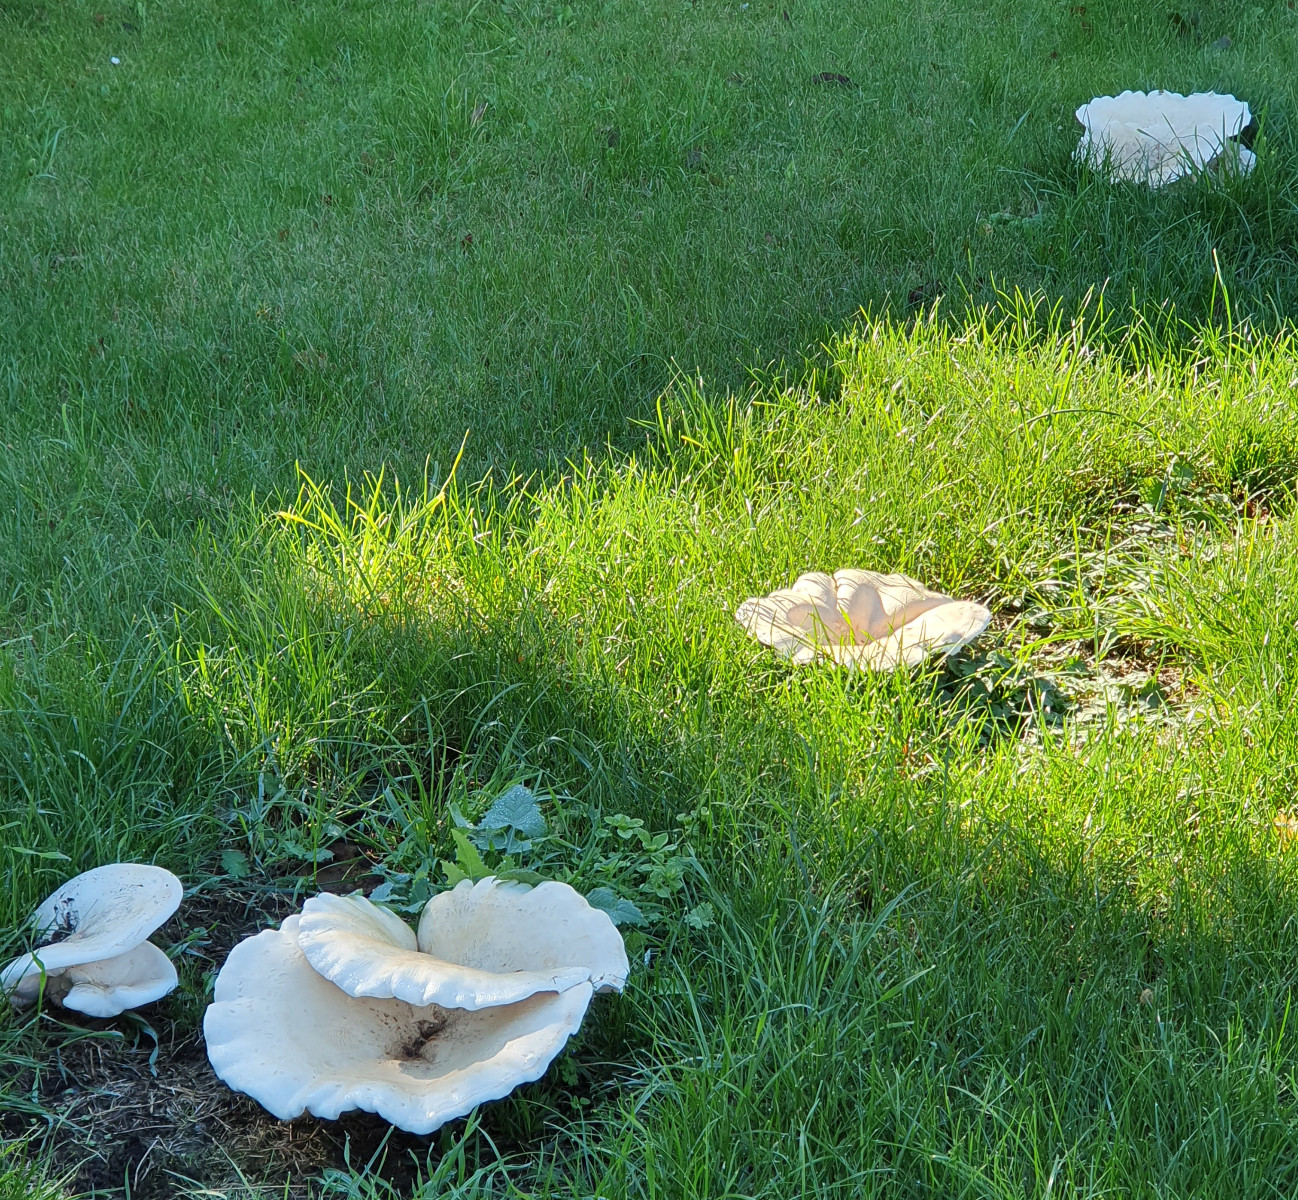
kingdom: Fungi
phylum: Basidiomycota
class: Agaricomycetes
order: Agaricales
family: Tricholomataceae
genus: Aspropaxillus
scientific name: Aspropaxillus giganteus
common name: kæmpe-tragtridderhat
